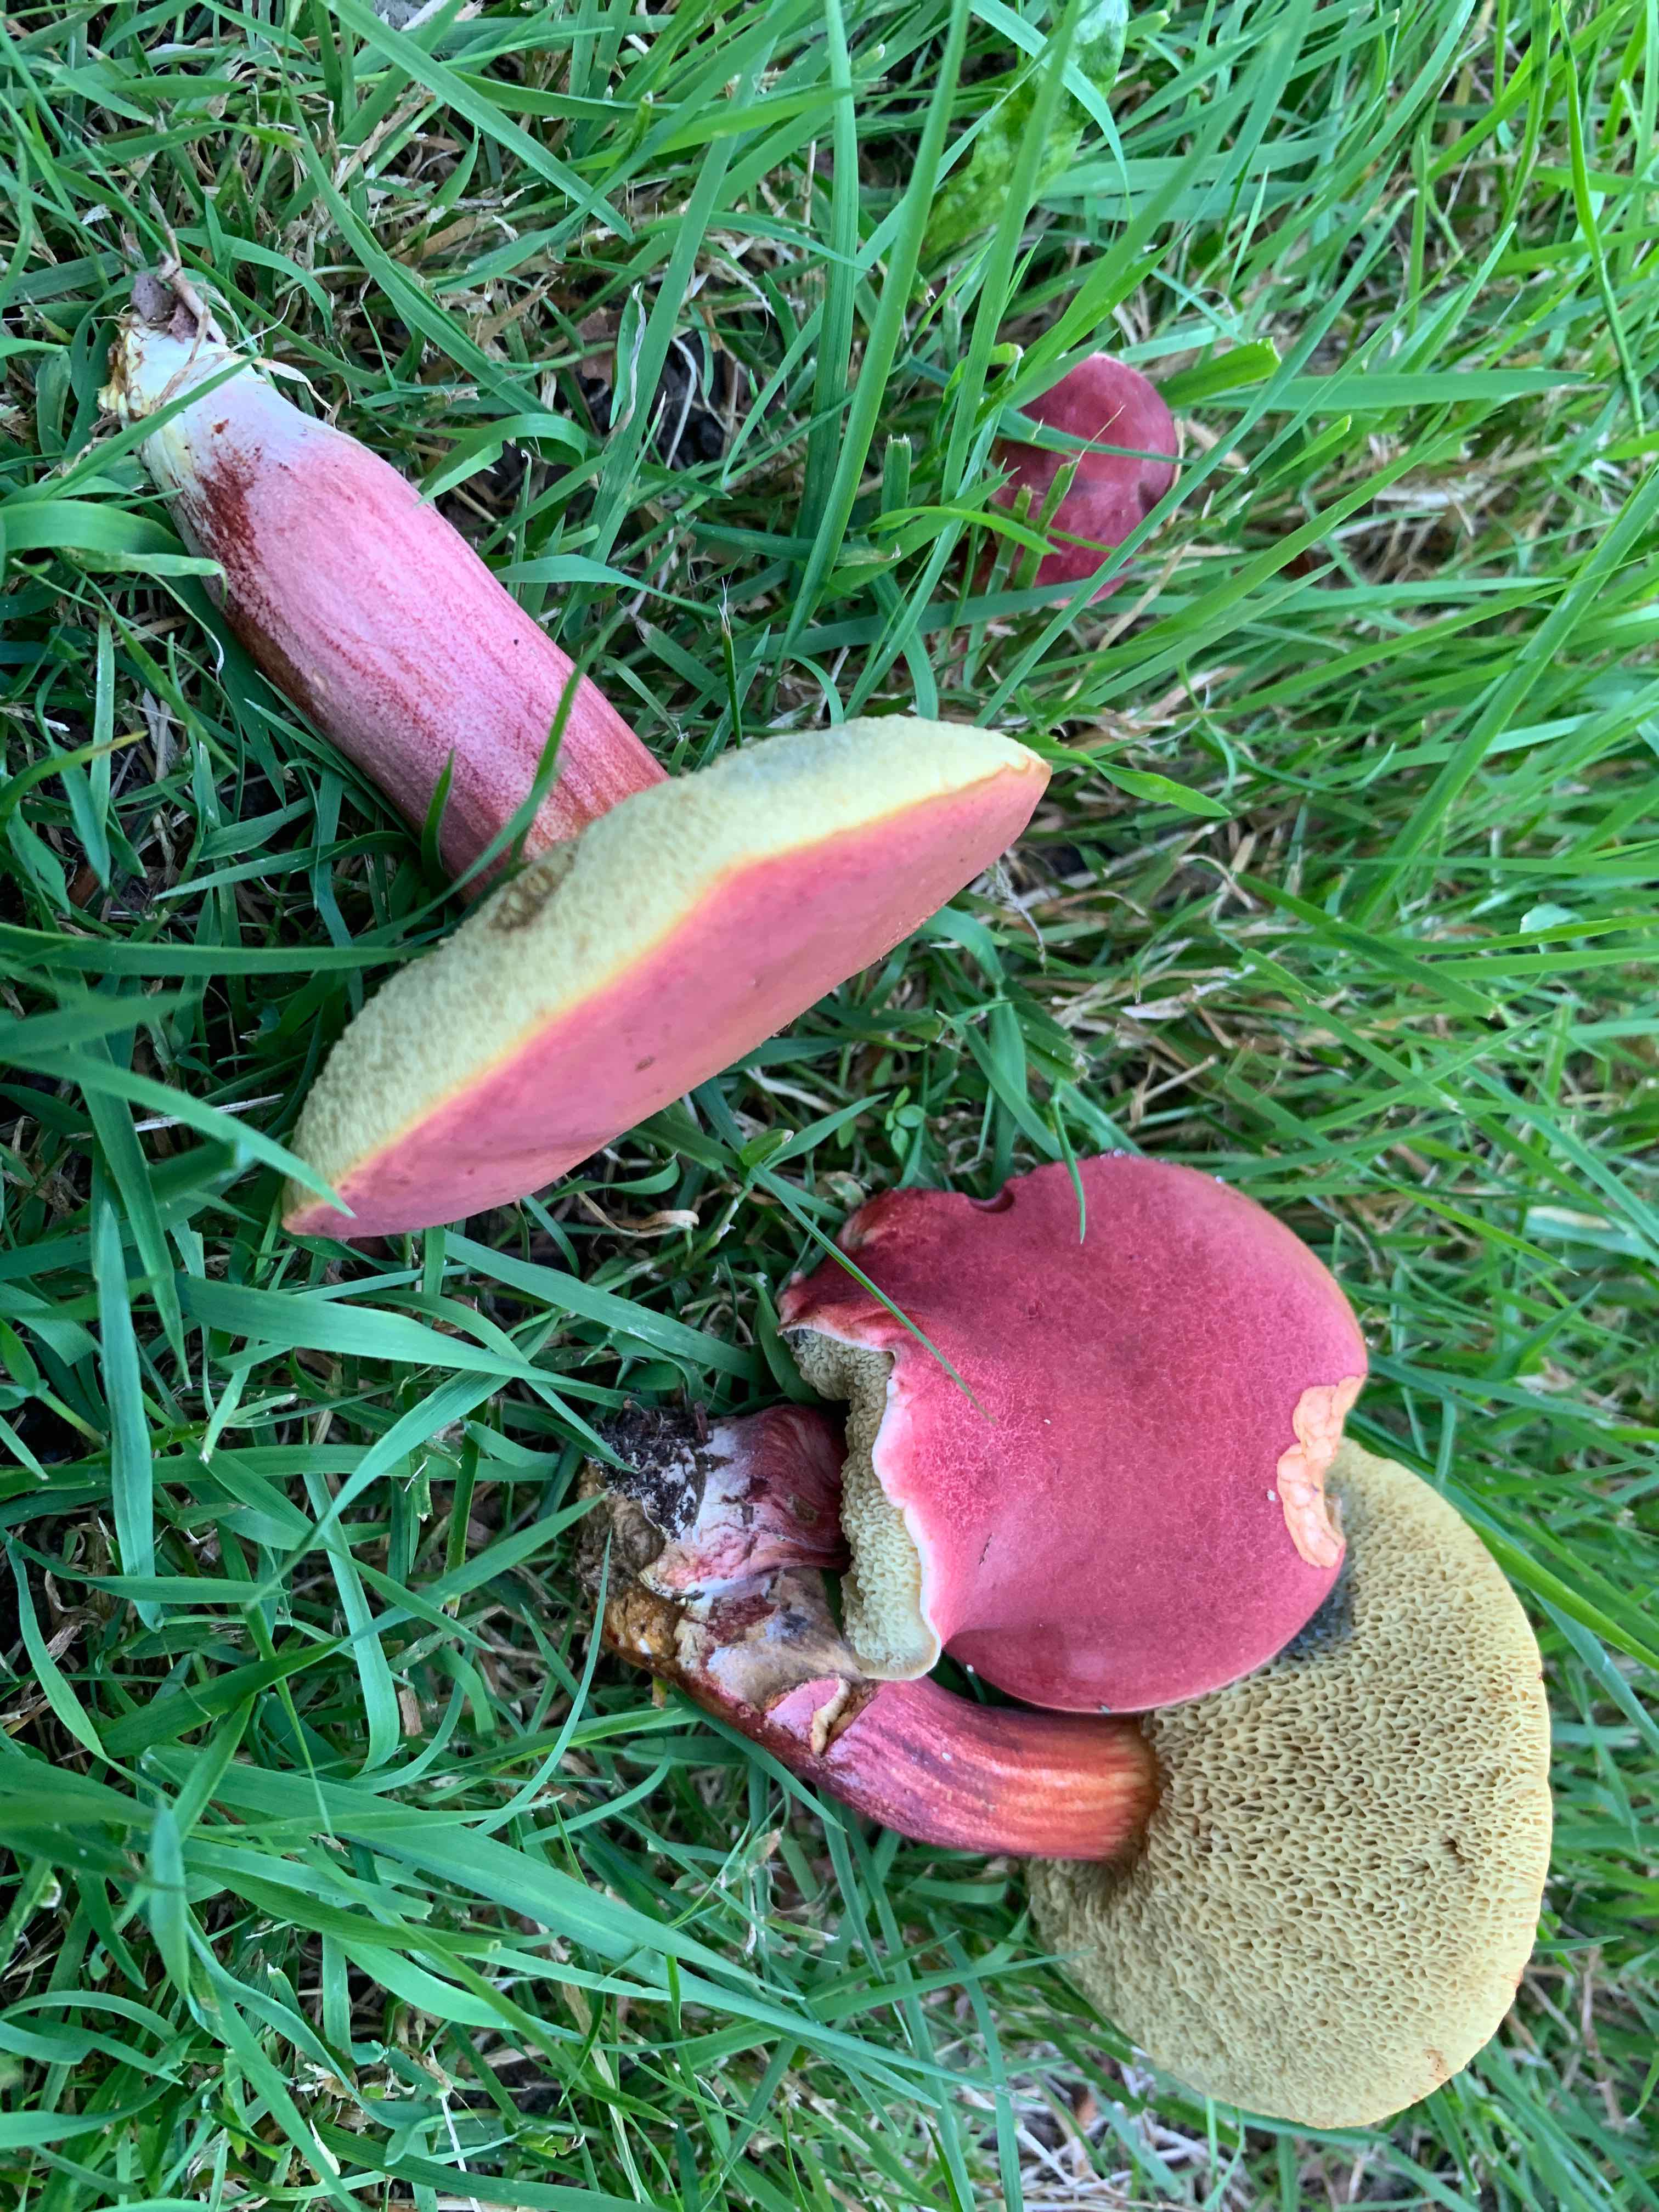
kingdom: Fungi
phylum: Basidiomycota
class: Agaricomycetes
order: Boletales
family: Boletaceae
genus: Hortiboletus
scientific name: Hortiboletus rubellus
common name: blodrød rørhat
